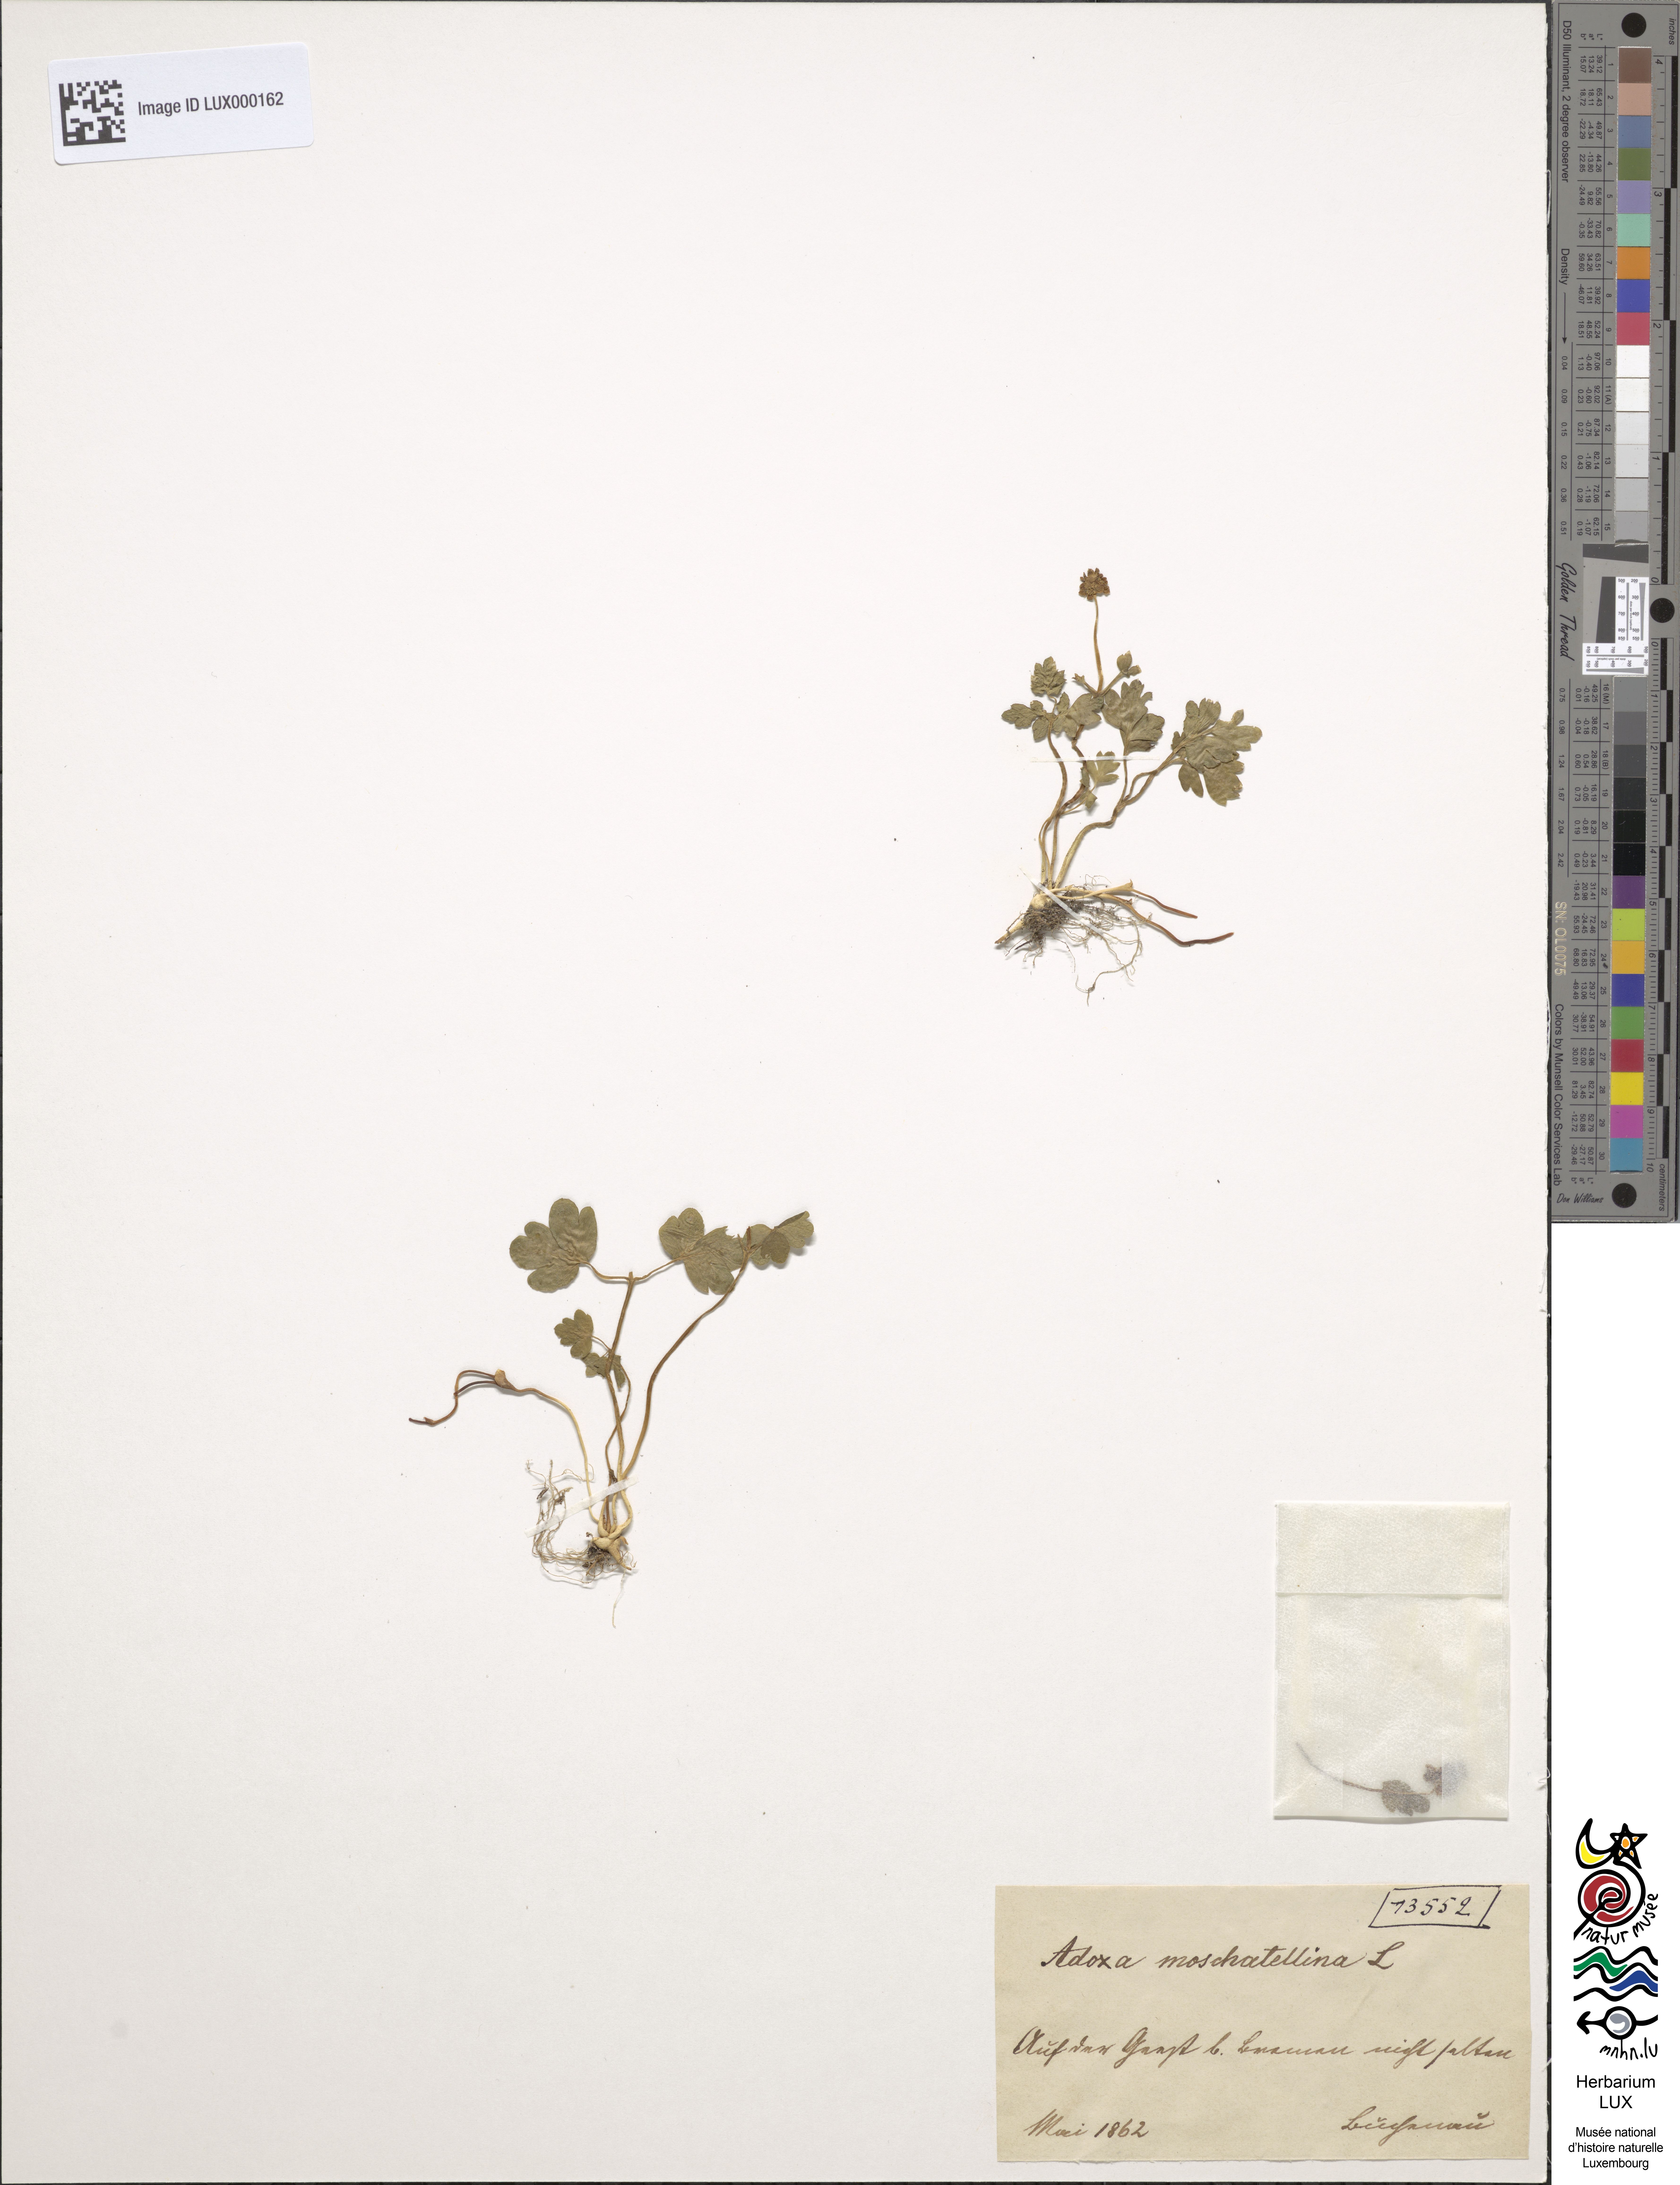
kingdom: Plantae
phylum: Tracheophyta
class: Magnoliopsida
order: Dipsacales
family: Viburnaceae
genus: Adoxa
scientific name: Adoxa moschatellina
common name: Moschatel
